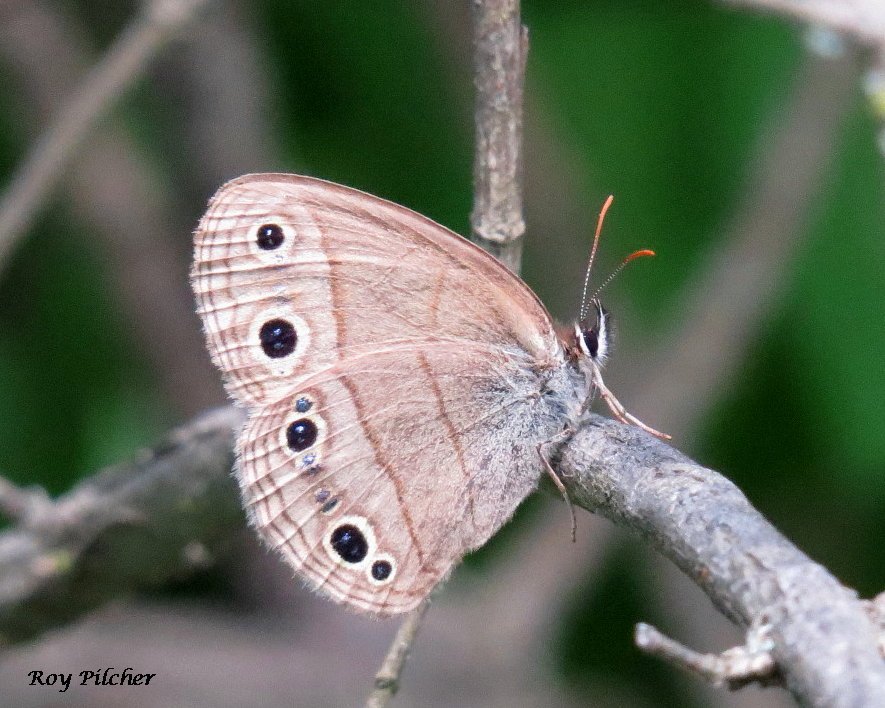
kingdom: Animalia
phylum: Arthropoda
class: Insecta
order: Lepidoptera
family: Nymphalidae
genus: Euptychia
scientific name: Euptychia cymela
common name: Little Wood Satyr
